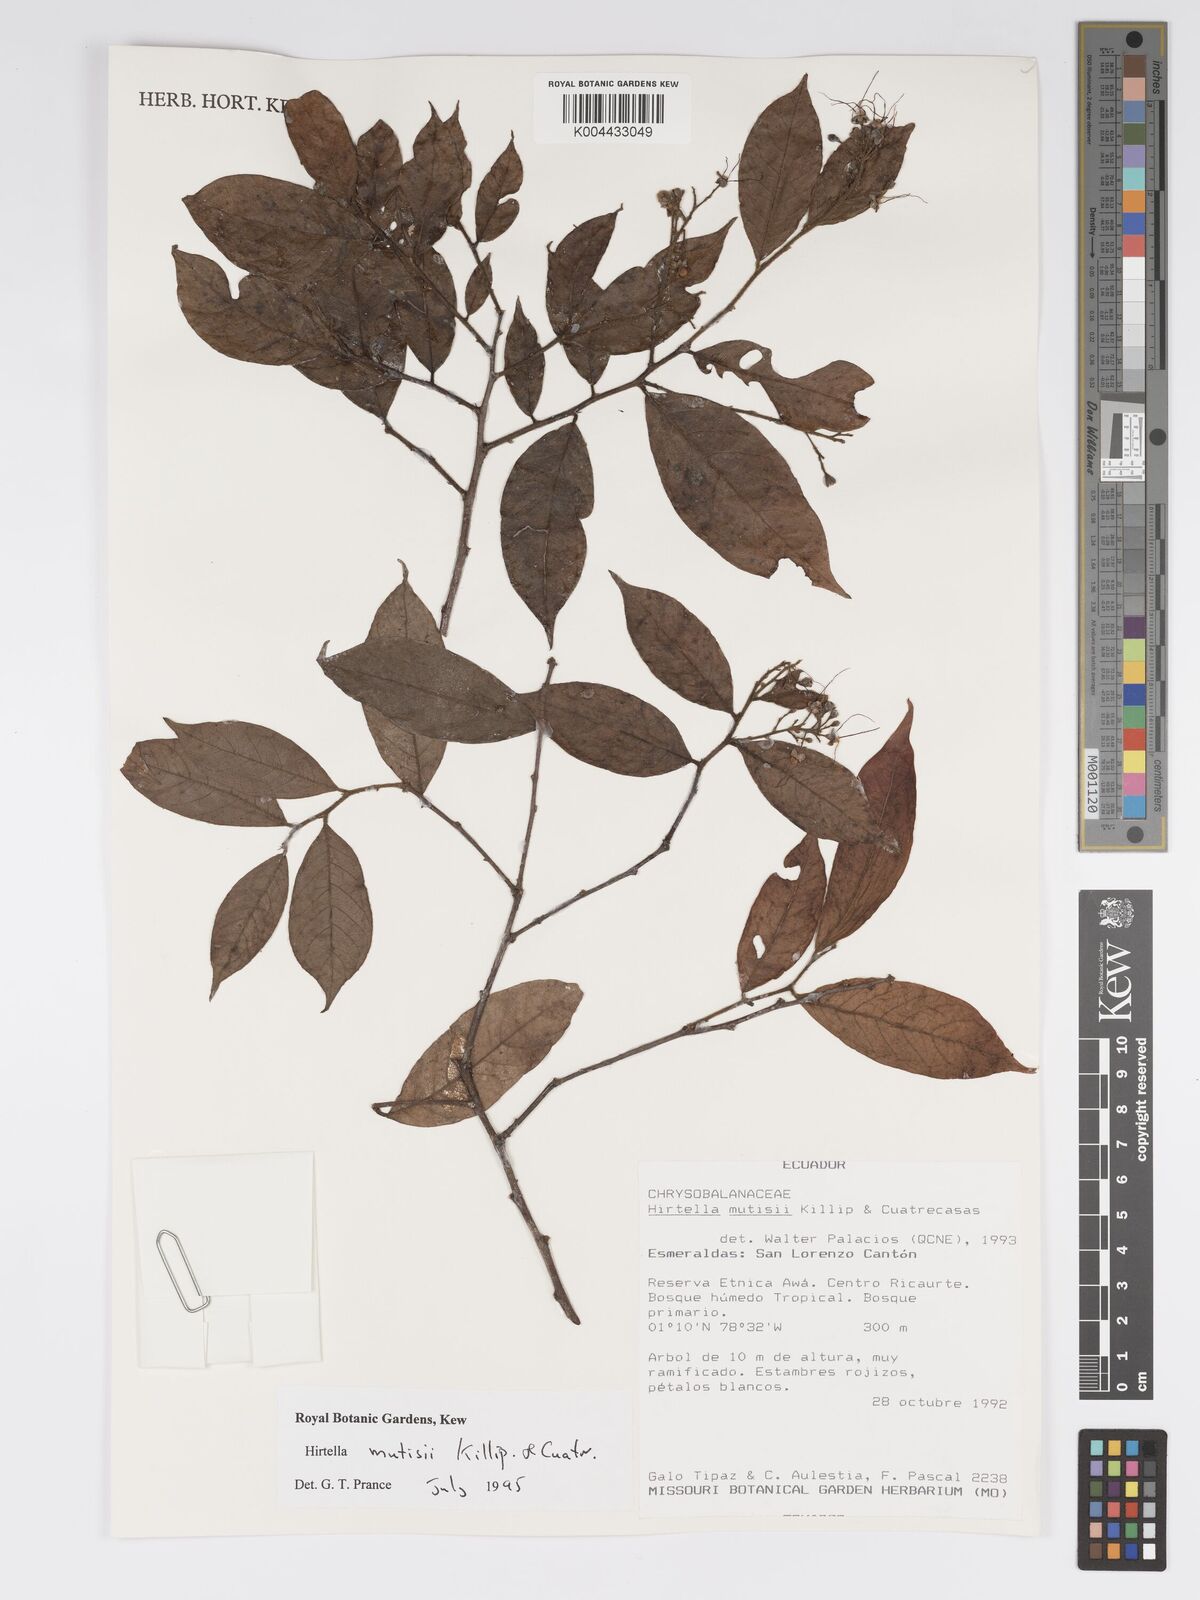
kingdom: Plantae
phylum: Tracheophyta
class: Magnoliopsida
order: Malpighiales
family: Chrysobalanaceae
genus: Hirtella
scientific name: Hirtella mutisii
